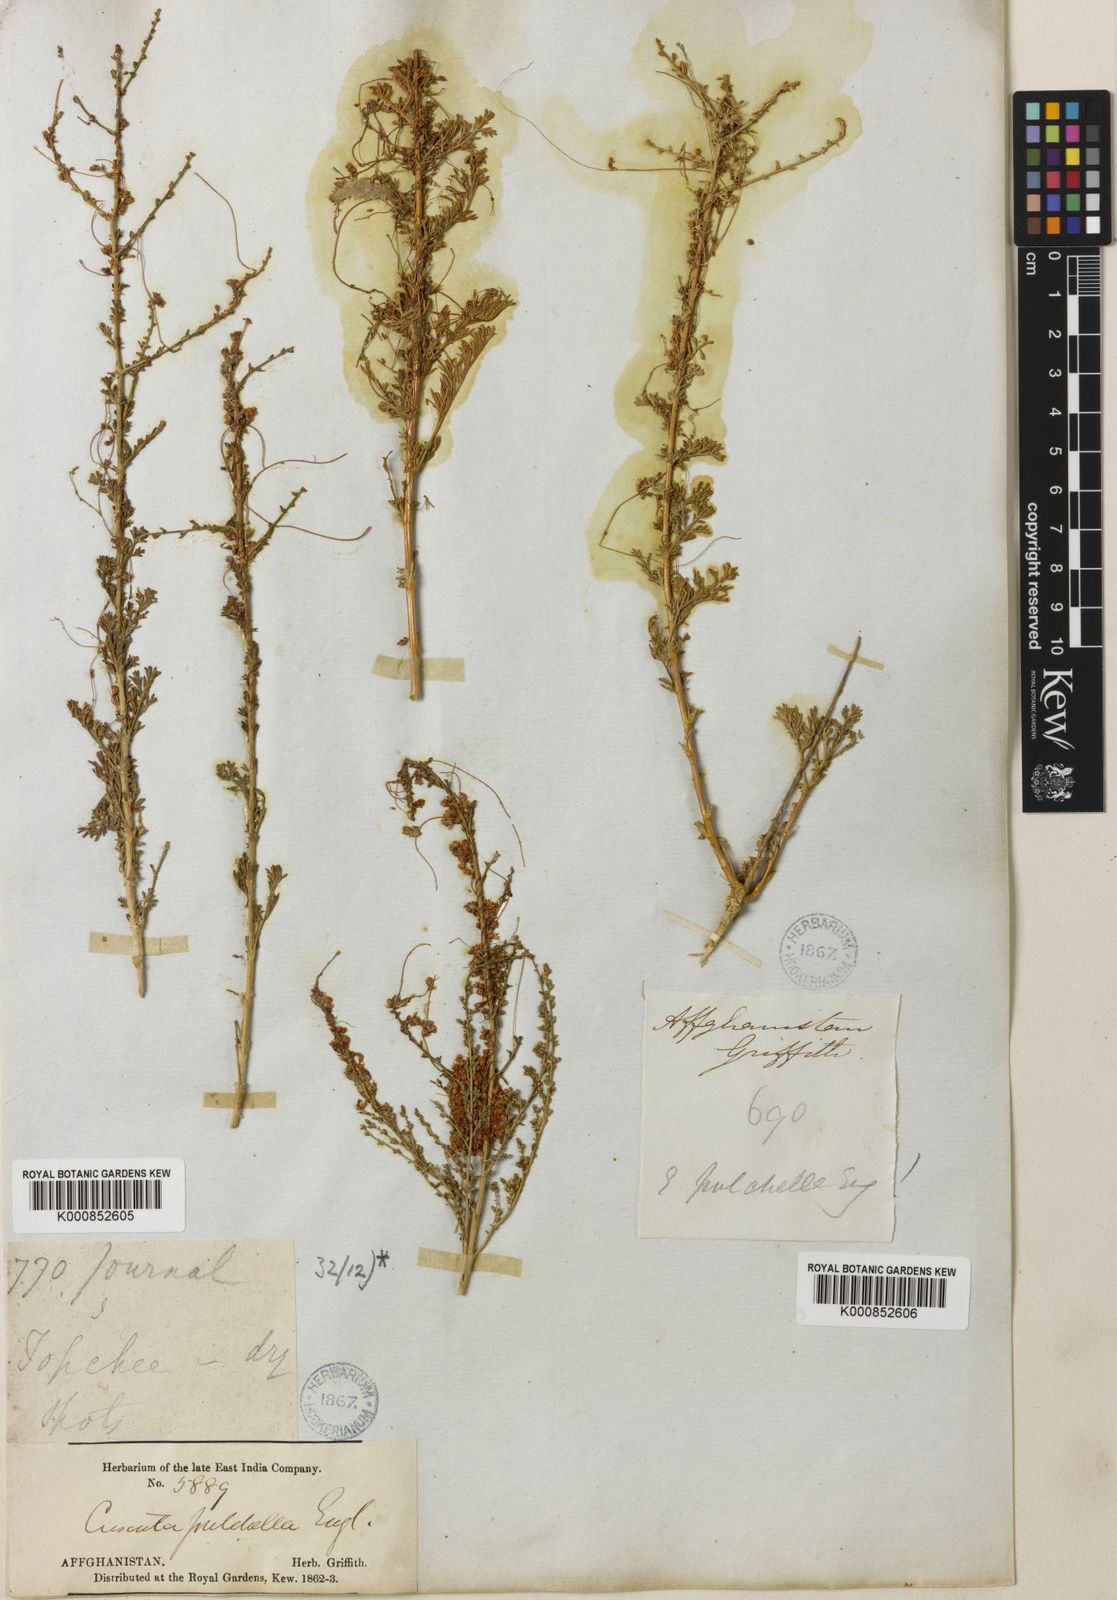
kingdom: Plantae
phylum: Tracheophyta
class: Magnoliopsida
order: Solanales
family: Convolvulaceae
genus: Cuscuta
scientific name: Cuscuta pulchella
